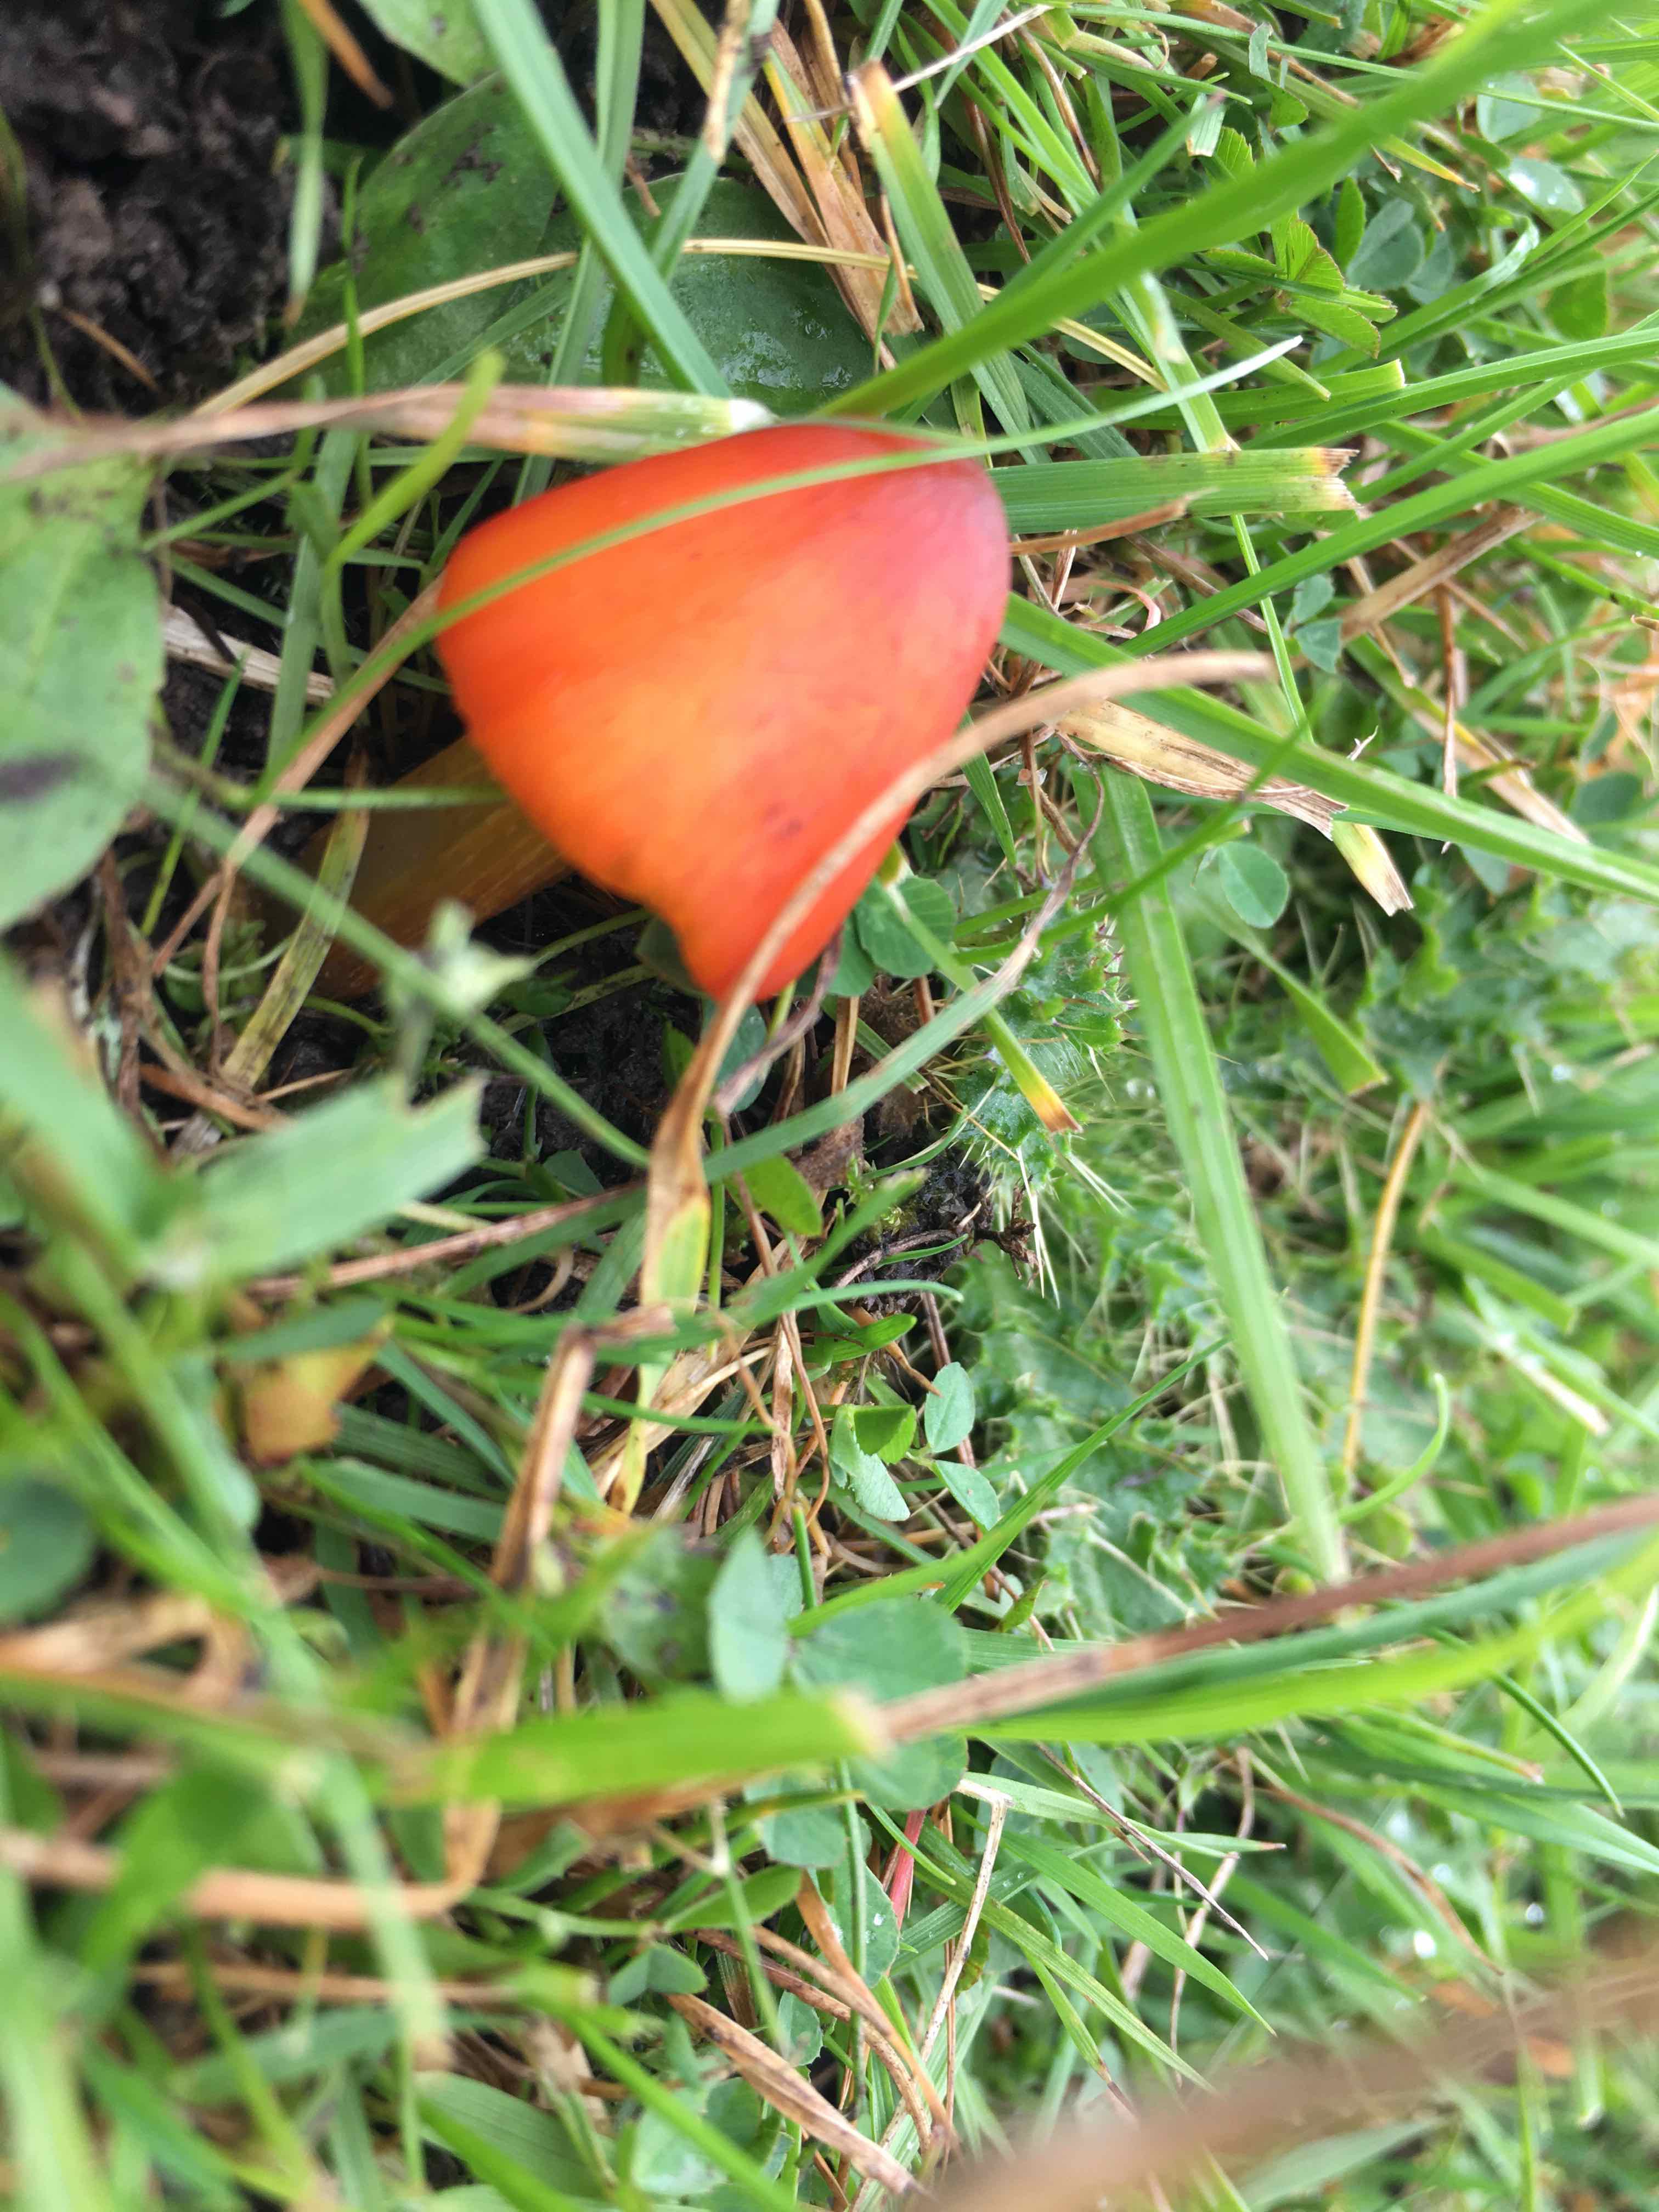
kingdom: Fungi
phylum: Basidiomycota
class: Agaricomycetes
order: Agaricales
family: Hygrophoraceae
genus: Hygrocybe
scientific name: Hygrocybe conica
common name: kegle-vokshat
